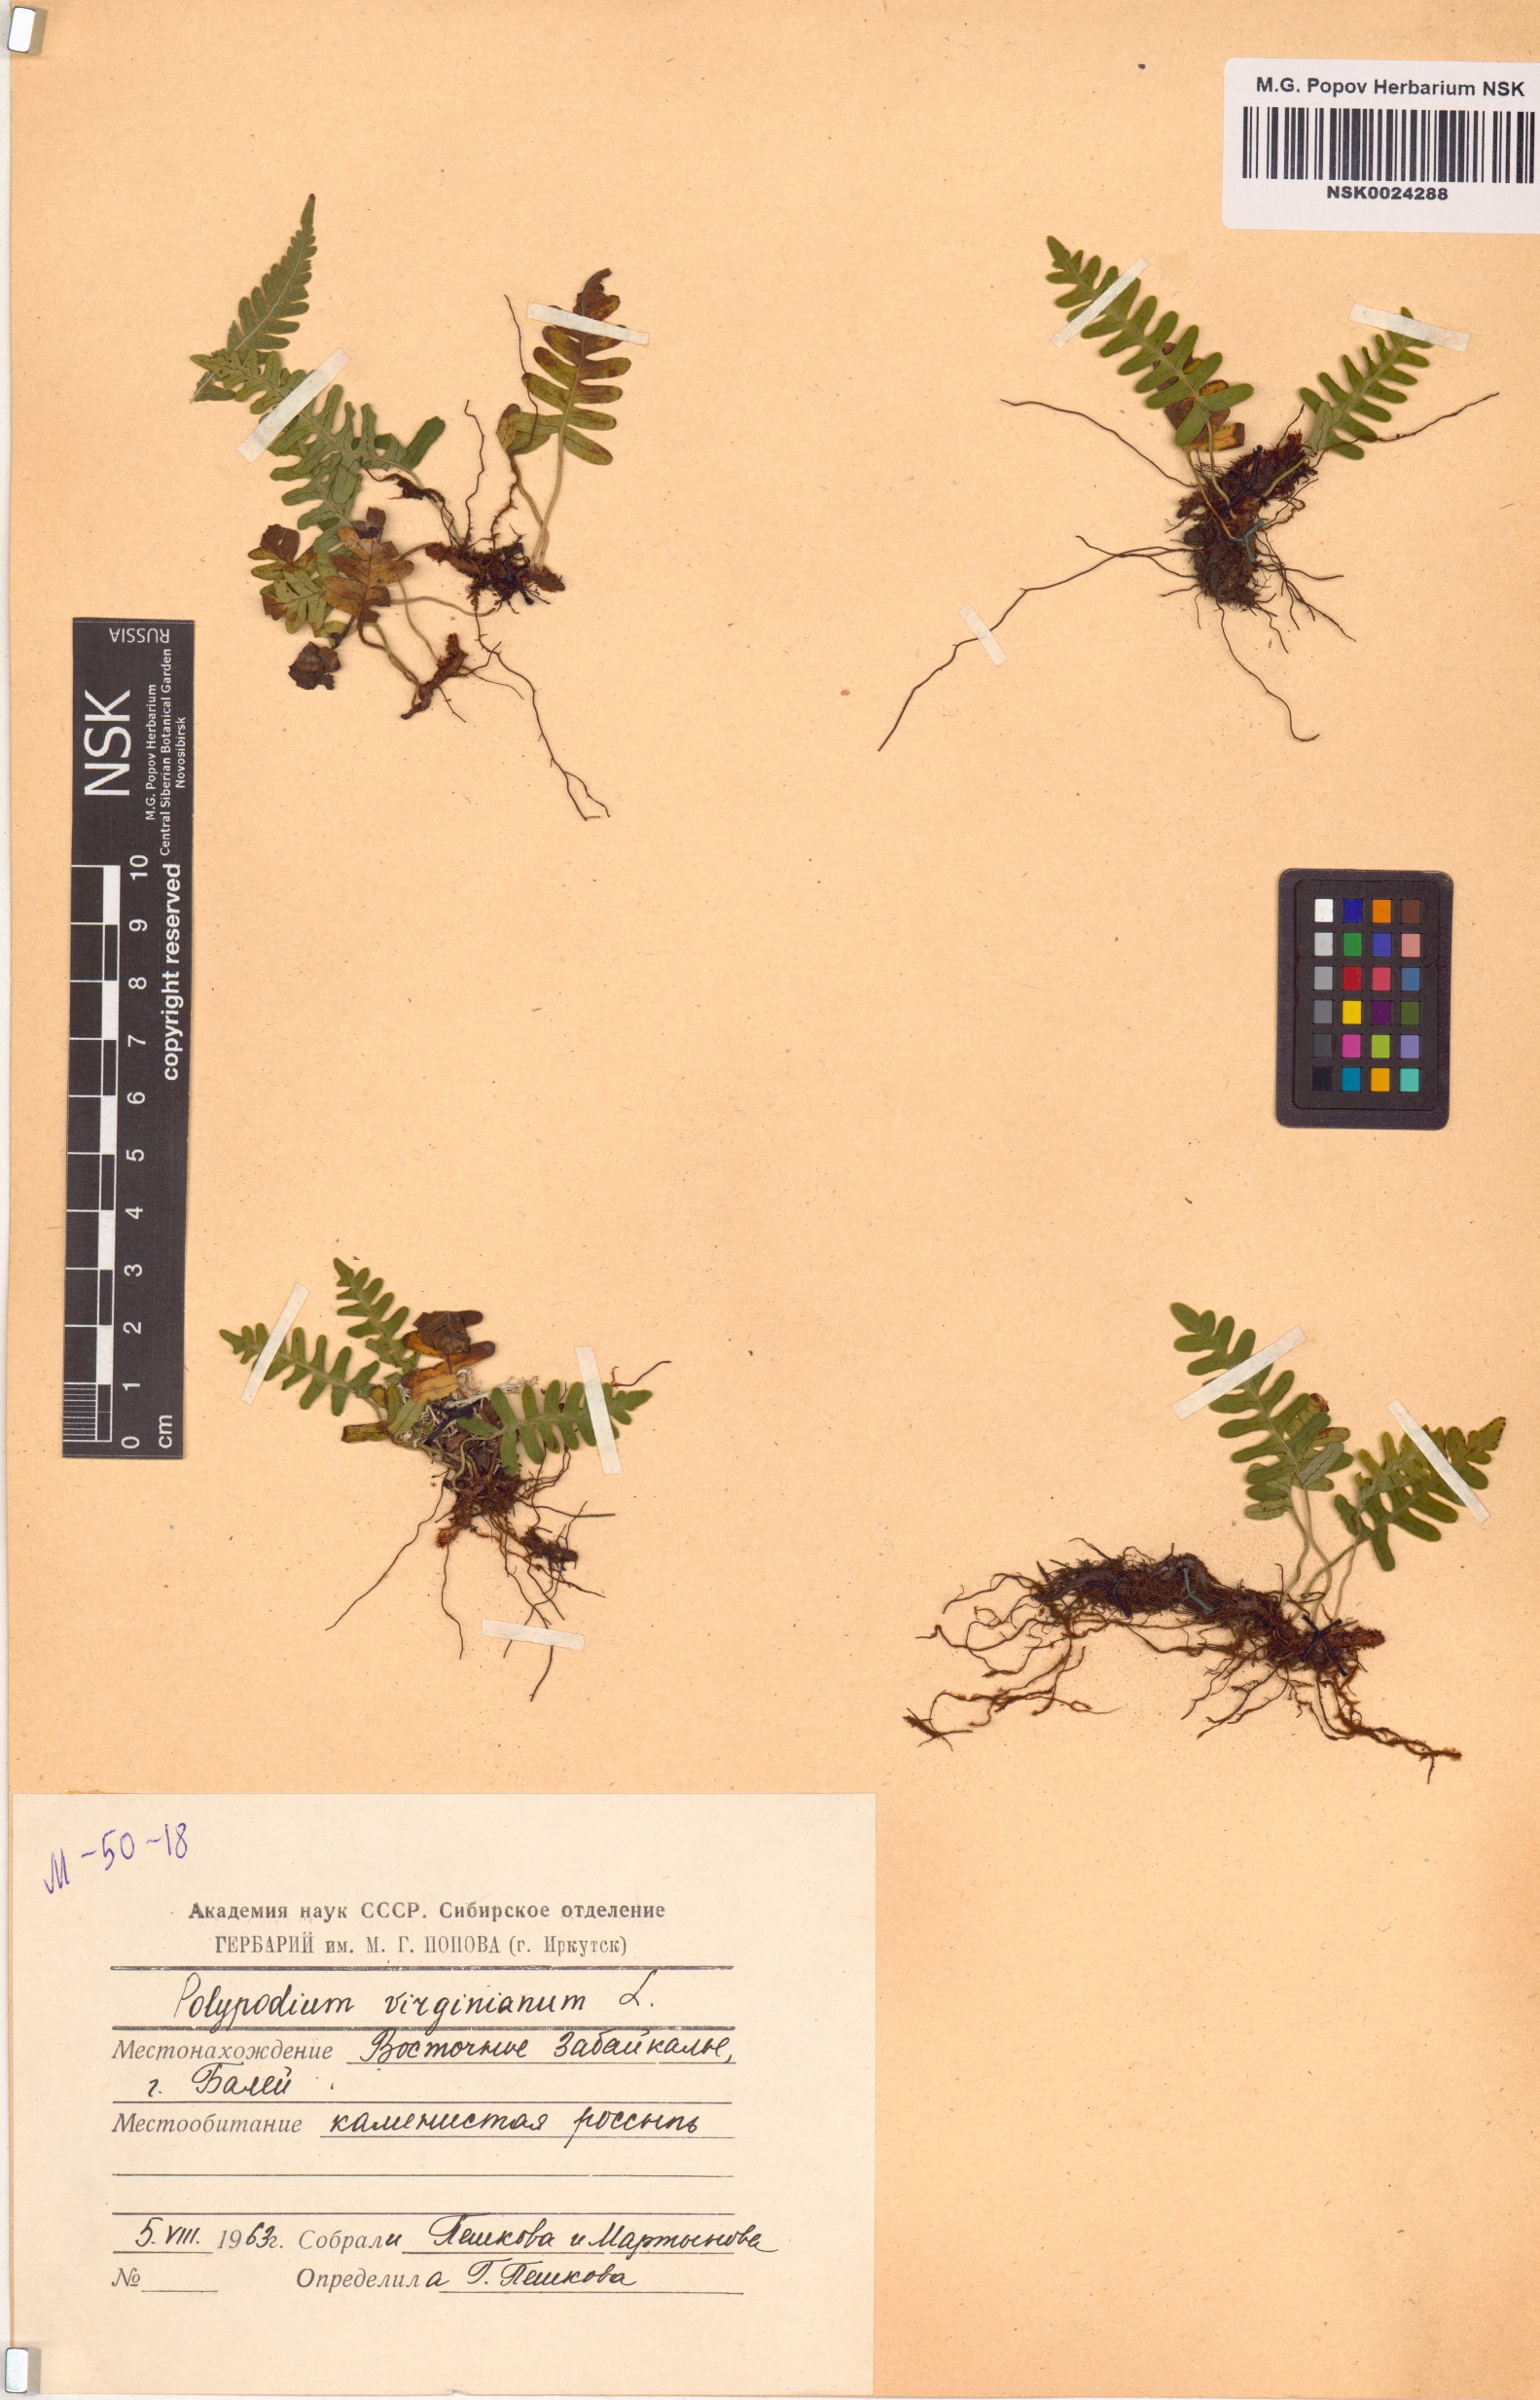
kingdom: Plantae
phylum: Tracheophyta
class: Polypodiopsida
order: Polypodiales
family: Polypodiaceae
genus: Polypodium
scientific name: Polypodium virginianum
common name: American wall fern
